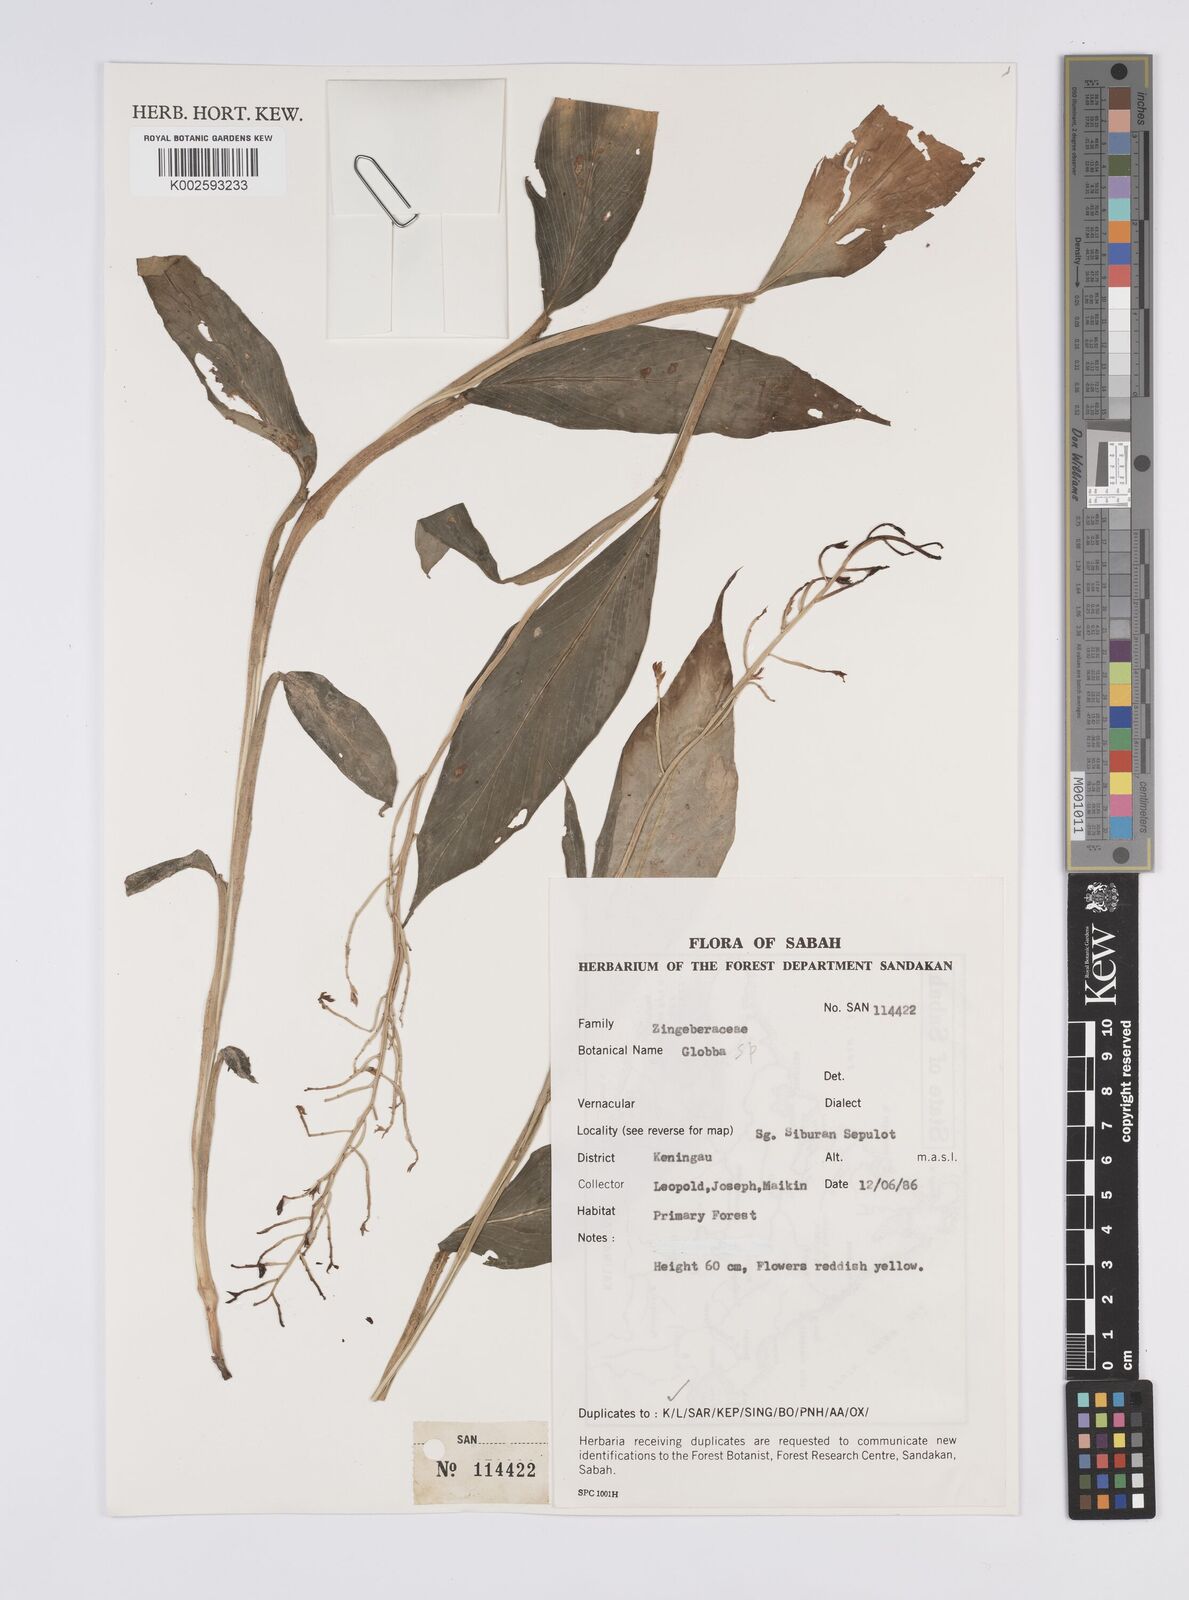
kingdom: Plantae
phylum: Tracheophyta
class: Liliopsida
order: Zingiberales
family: Zingiberaceae
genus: Globba
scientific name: Globba
